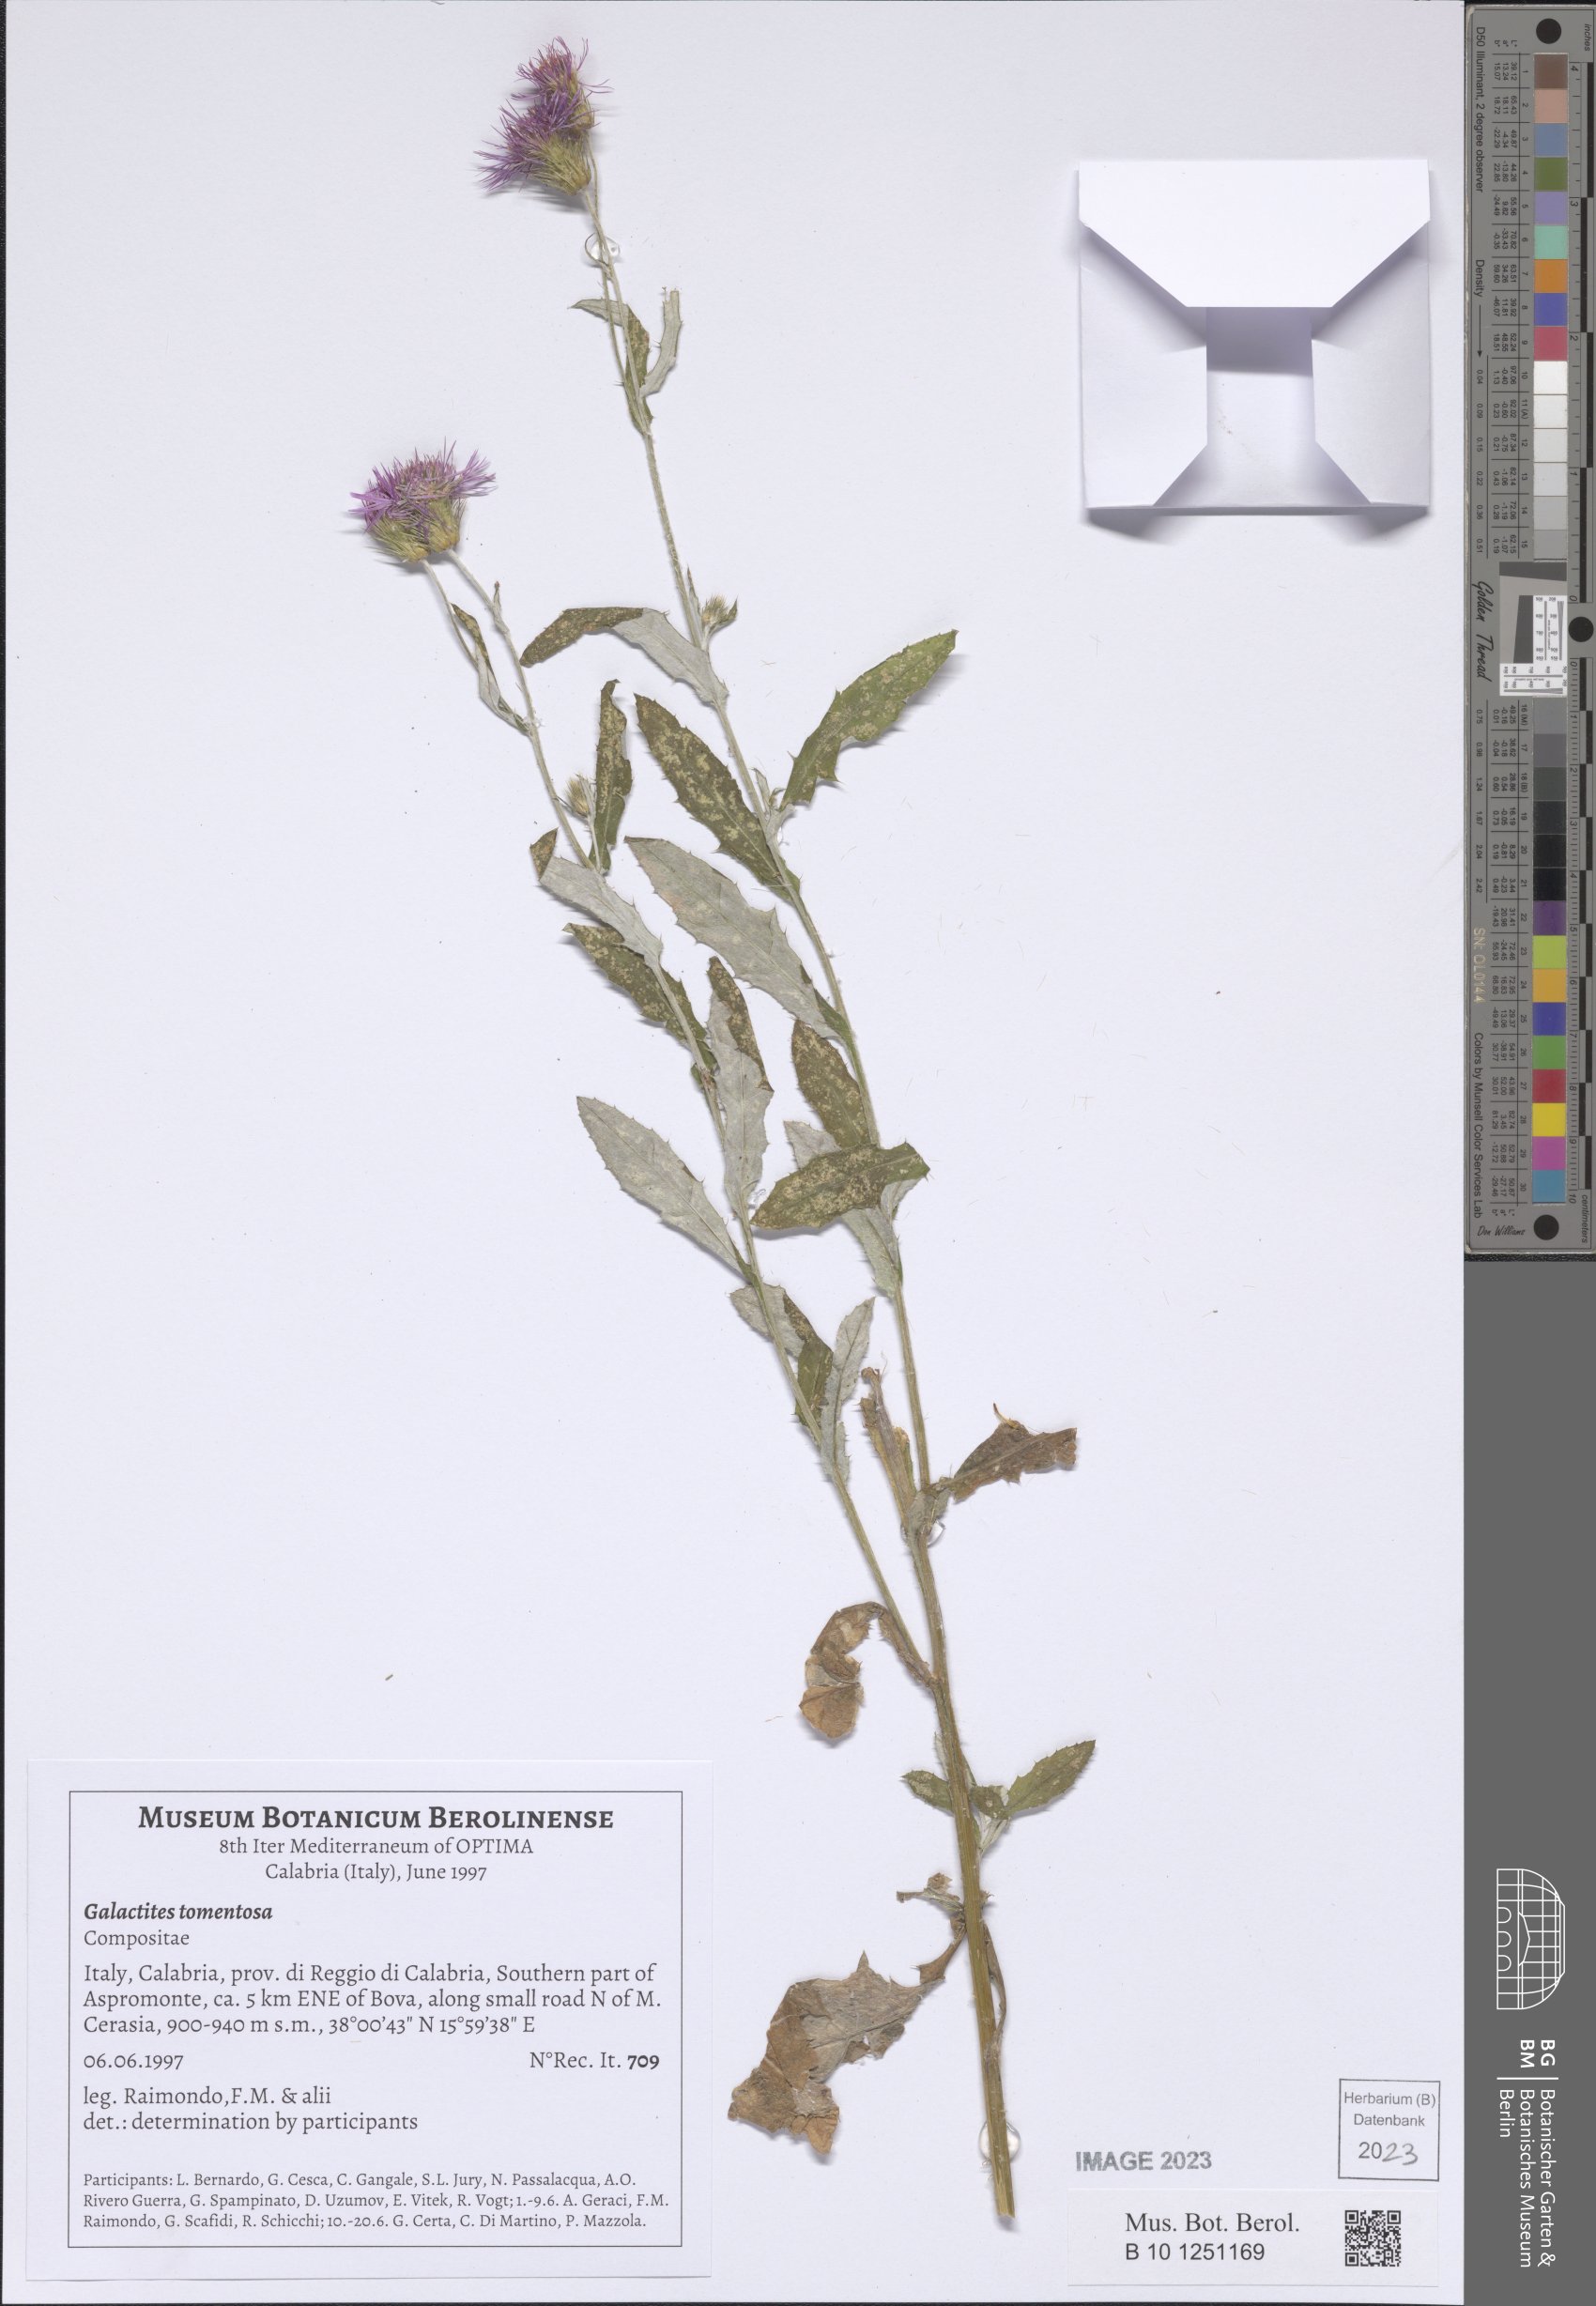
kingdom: Plantae
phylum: Tracheophyta
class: Magnoliopsida
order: Asterales
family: Asteraceae
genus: Galactites
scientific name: Galactites tomentosa
